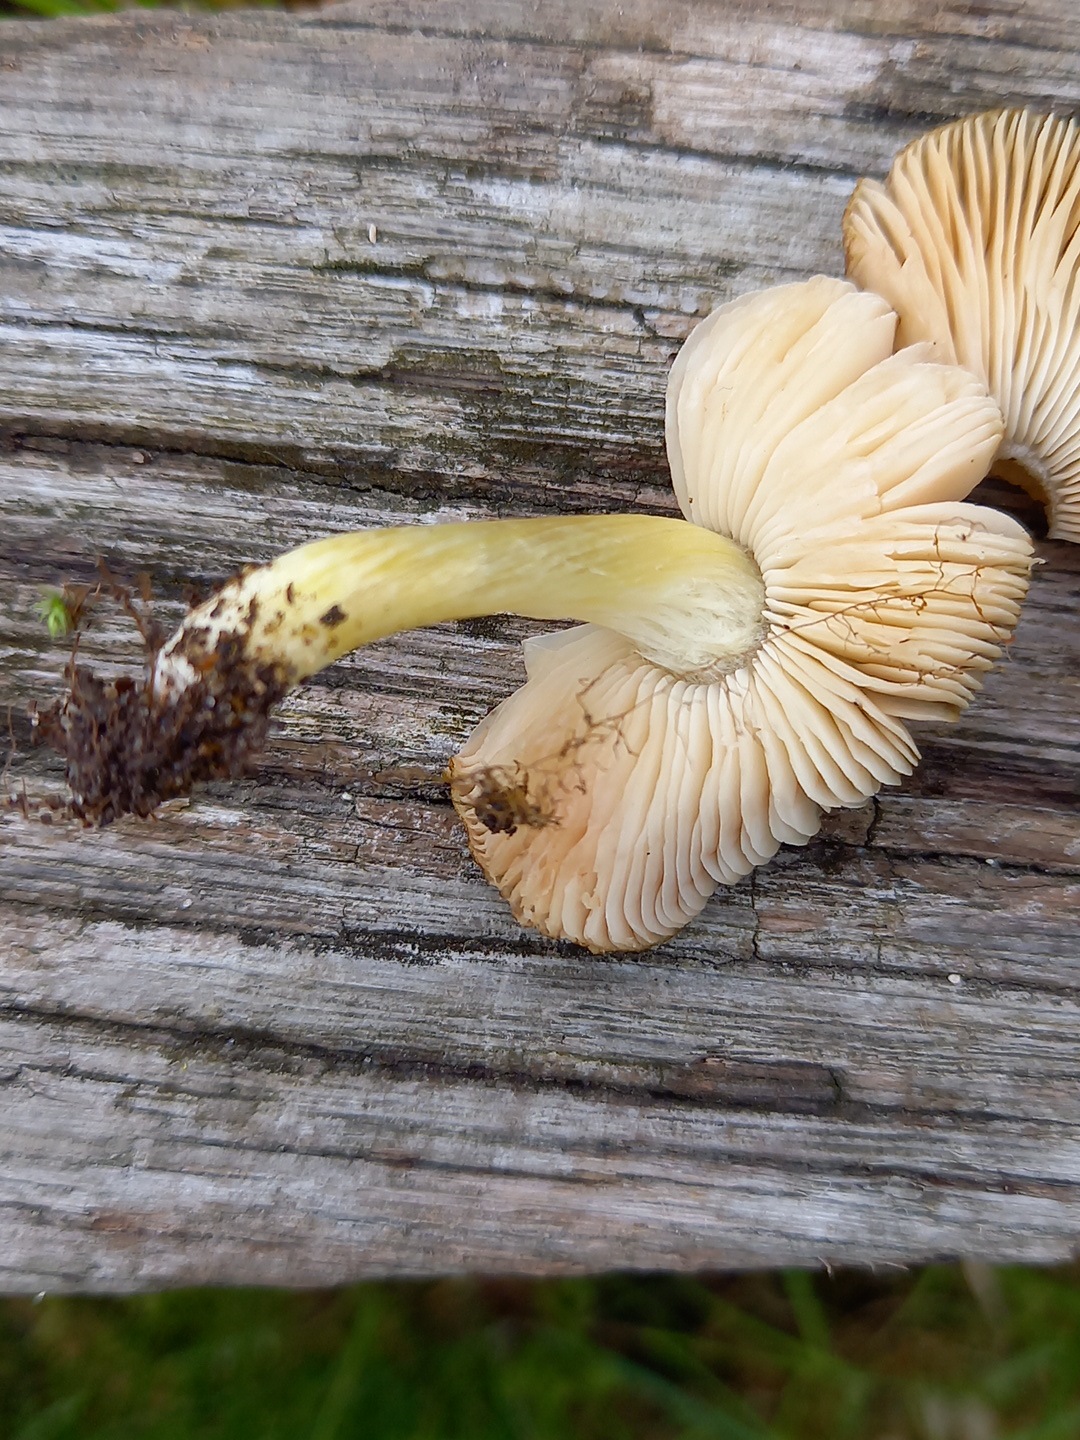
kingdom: Fungi
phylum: Basidiomycota
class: Agaricomycetes
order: Agaricales
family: Pluteaceae
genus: Pluteus
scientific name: Pluteus romellii
